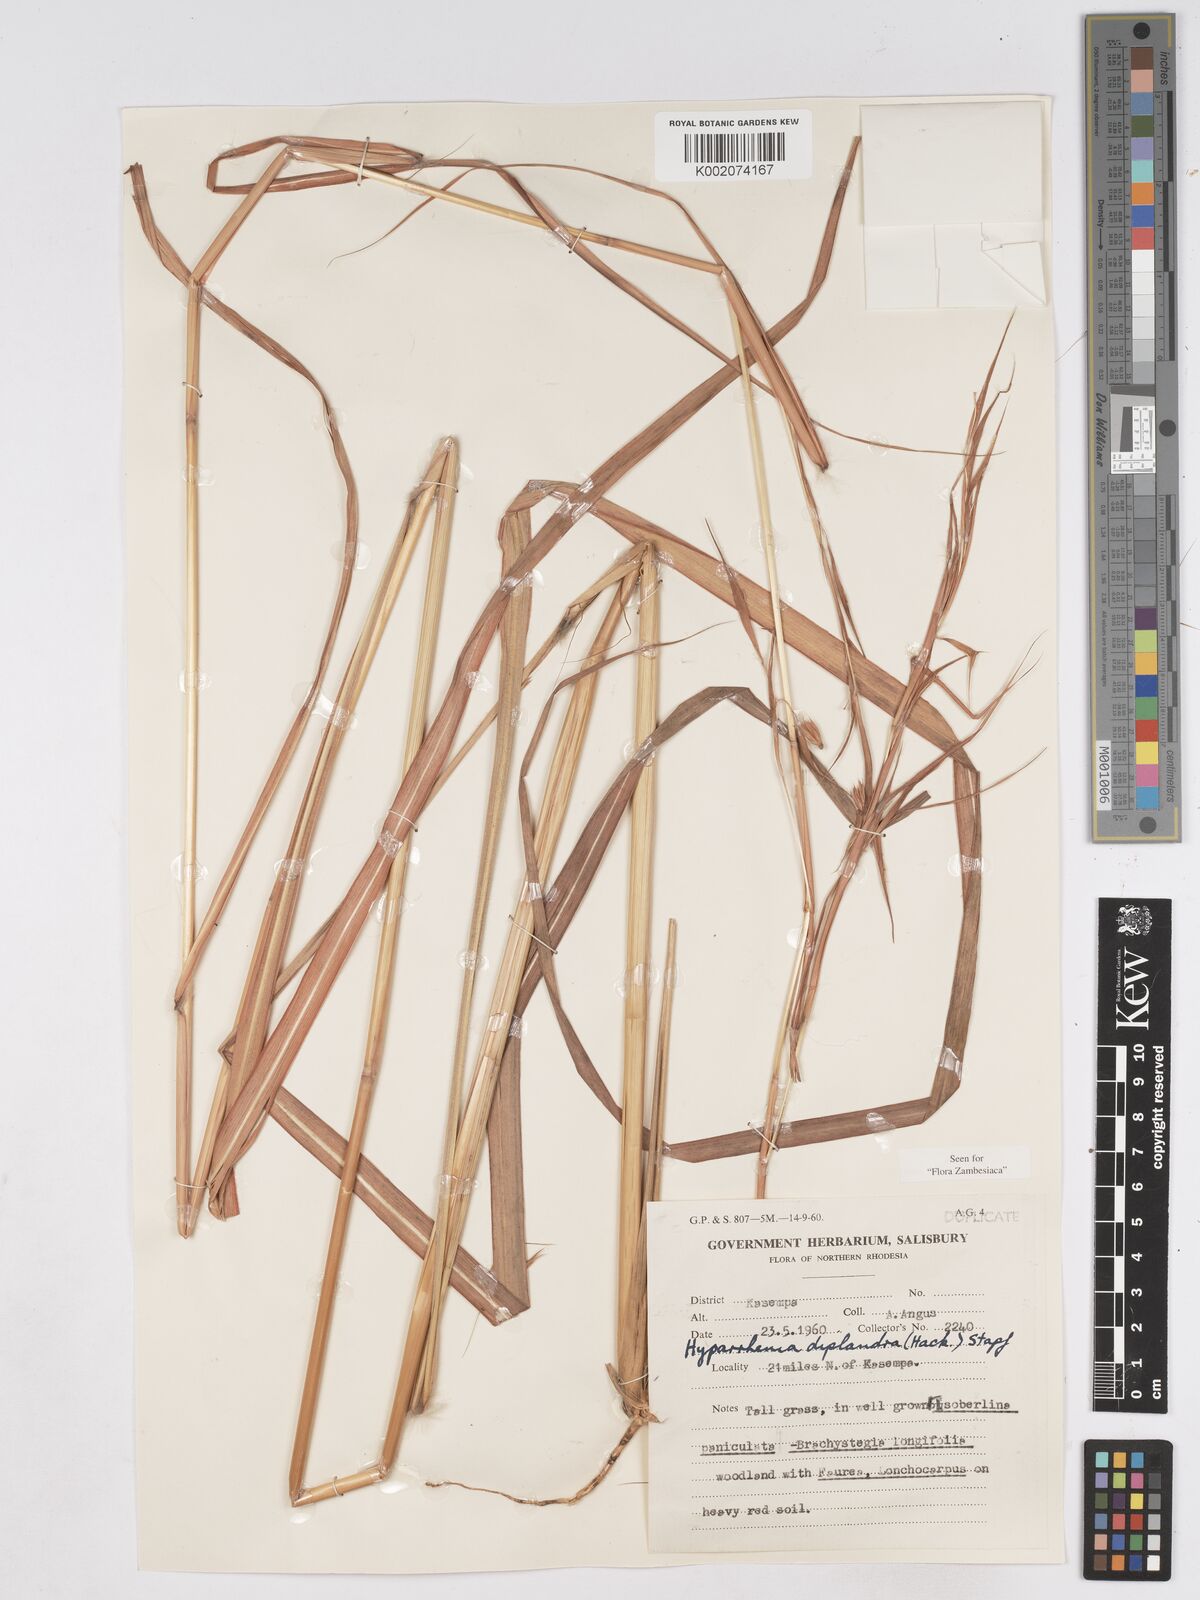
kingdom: Plantae
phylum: Tracheophyta
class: Liliopsida
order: Poales
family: Poaceae
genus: Hyparrhenia
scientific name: Hyparrhenia diplandra
